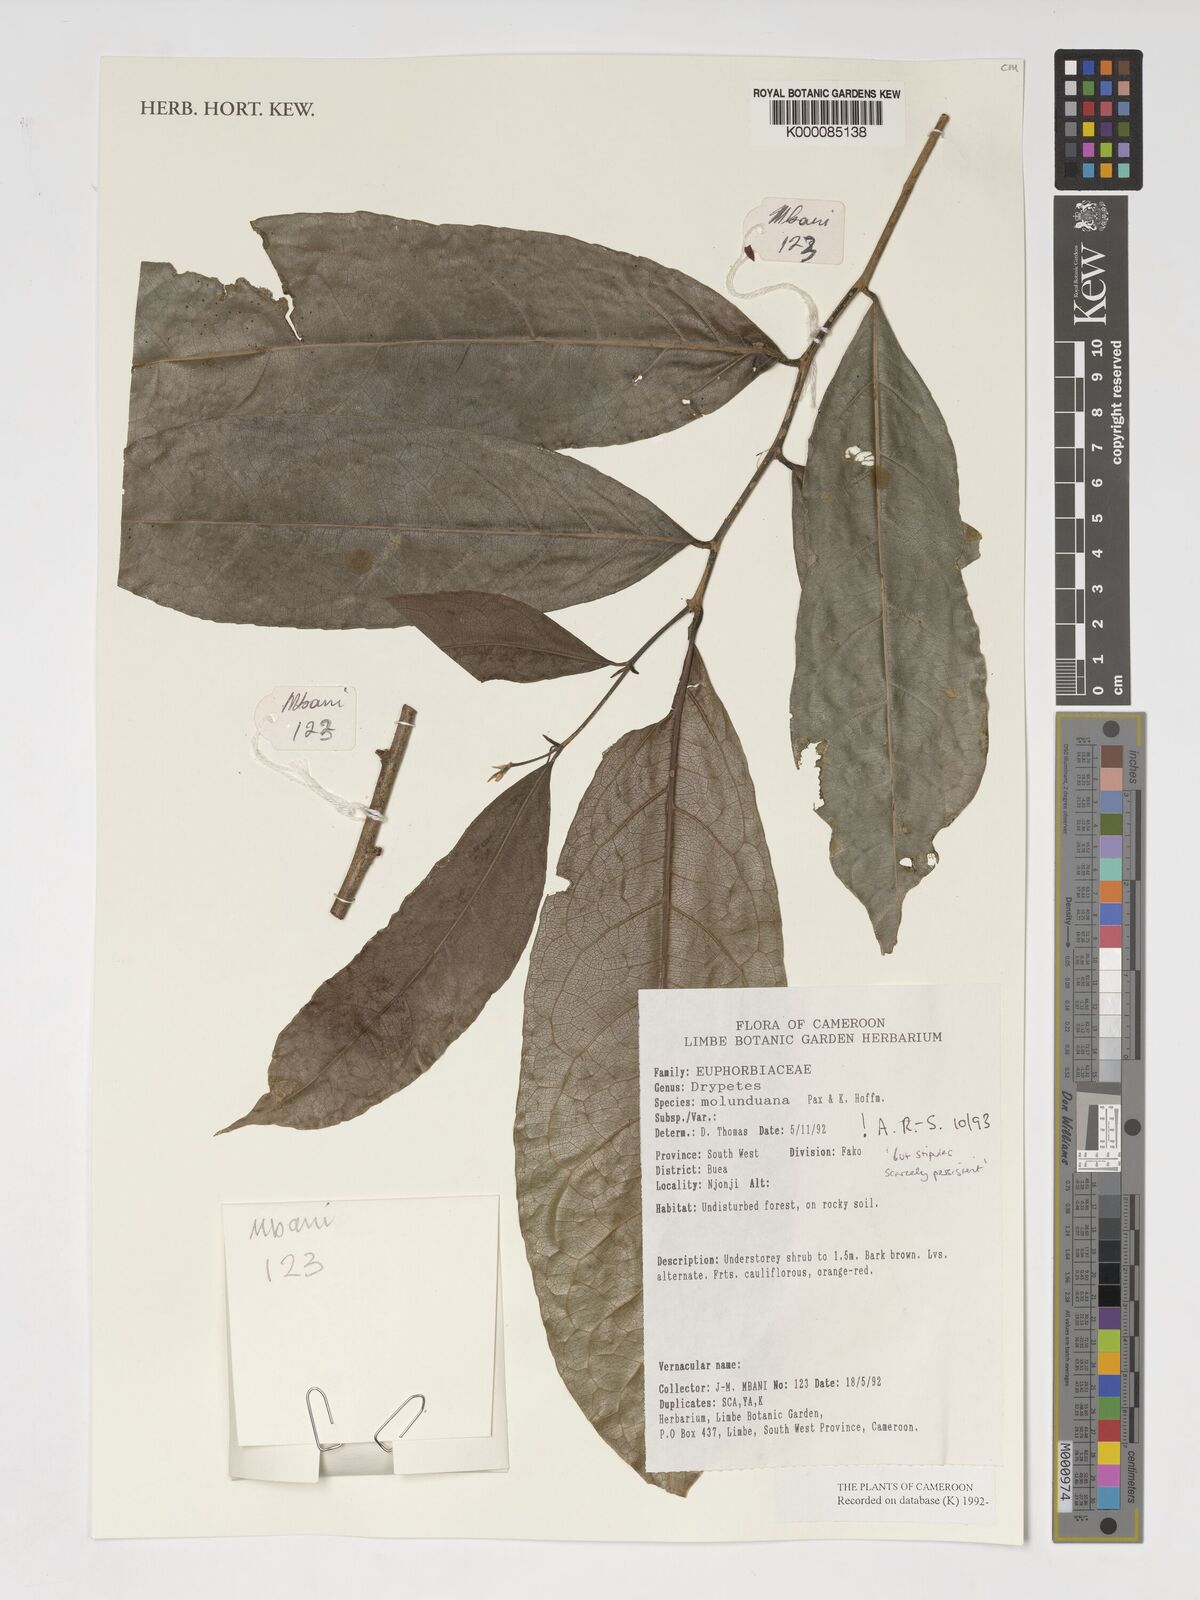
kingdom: Plantae
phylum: Tracheophyta
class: Magnoliopsida
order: Malpighiales
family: Putranjivaceae
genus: Drypetes
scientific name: Drypetes molunduana
